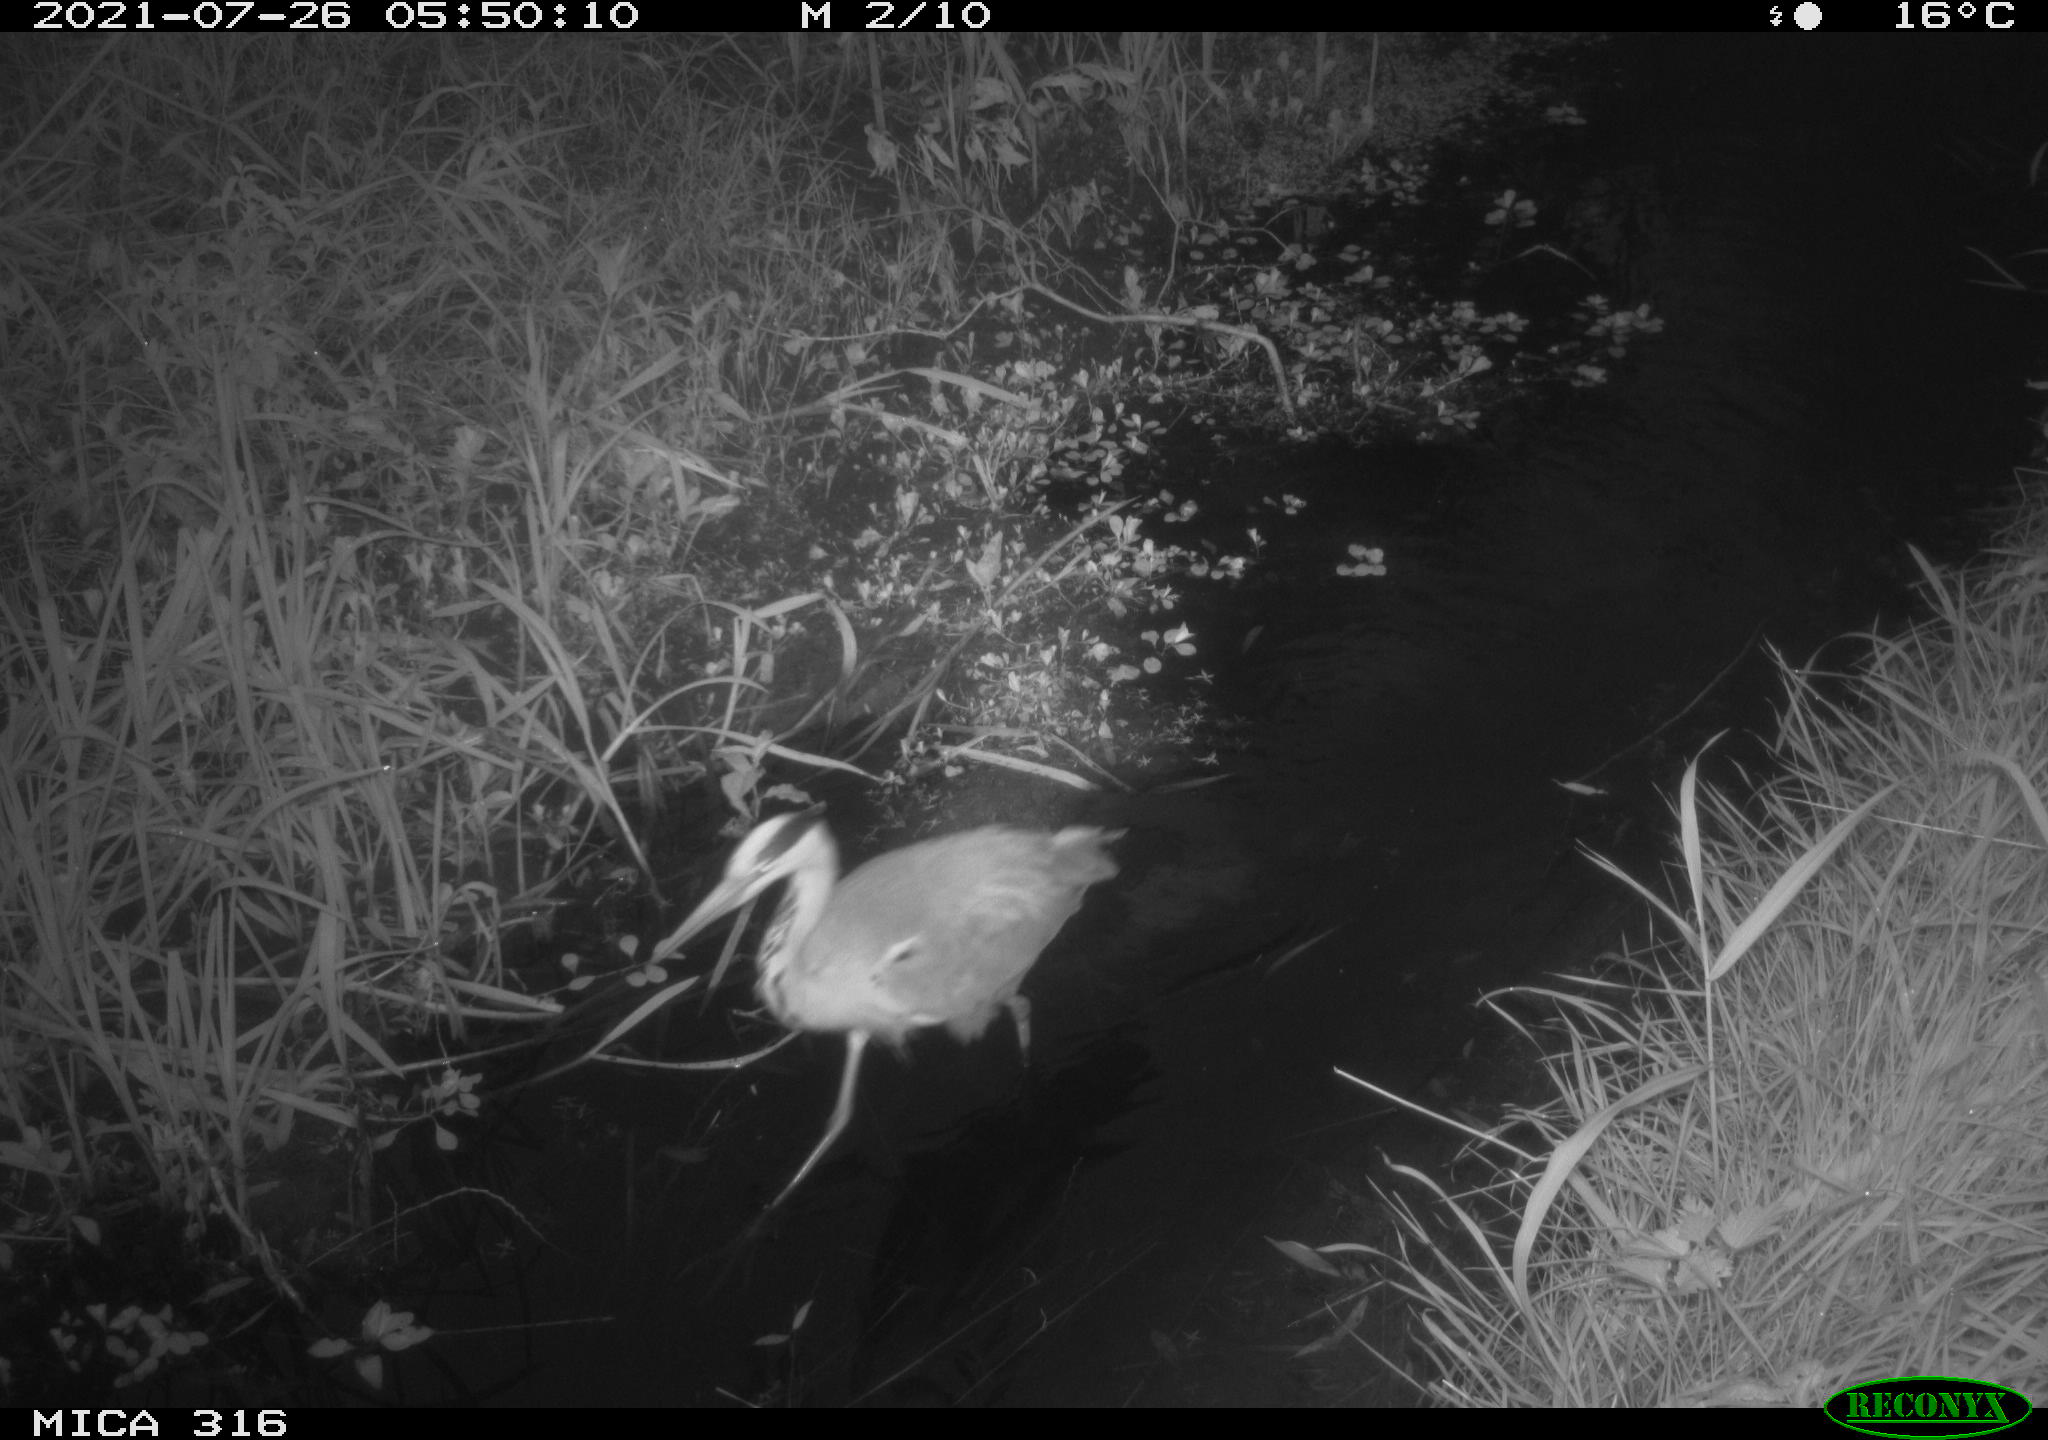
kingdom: Animalia
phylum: Chordata
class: Aves
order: Pelecaniformes
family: Ardeidae
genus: Ardea
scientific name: Ardea
